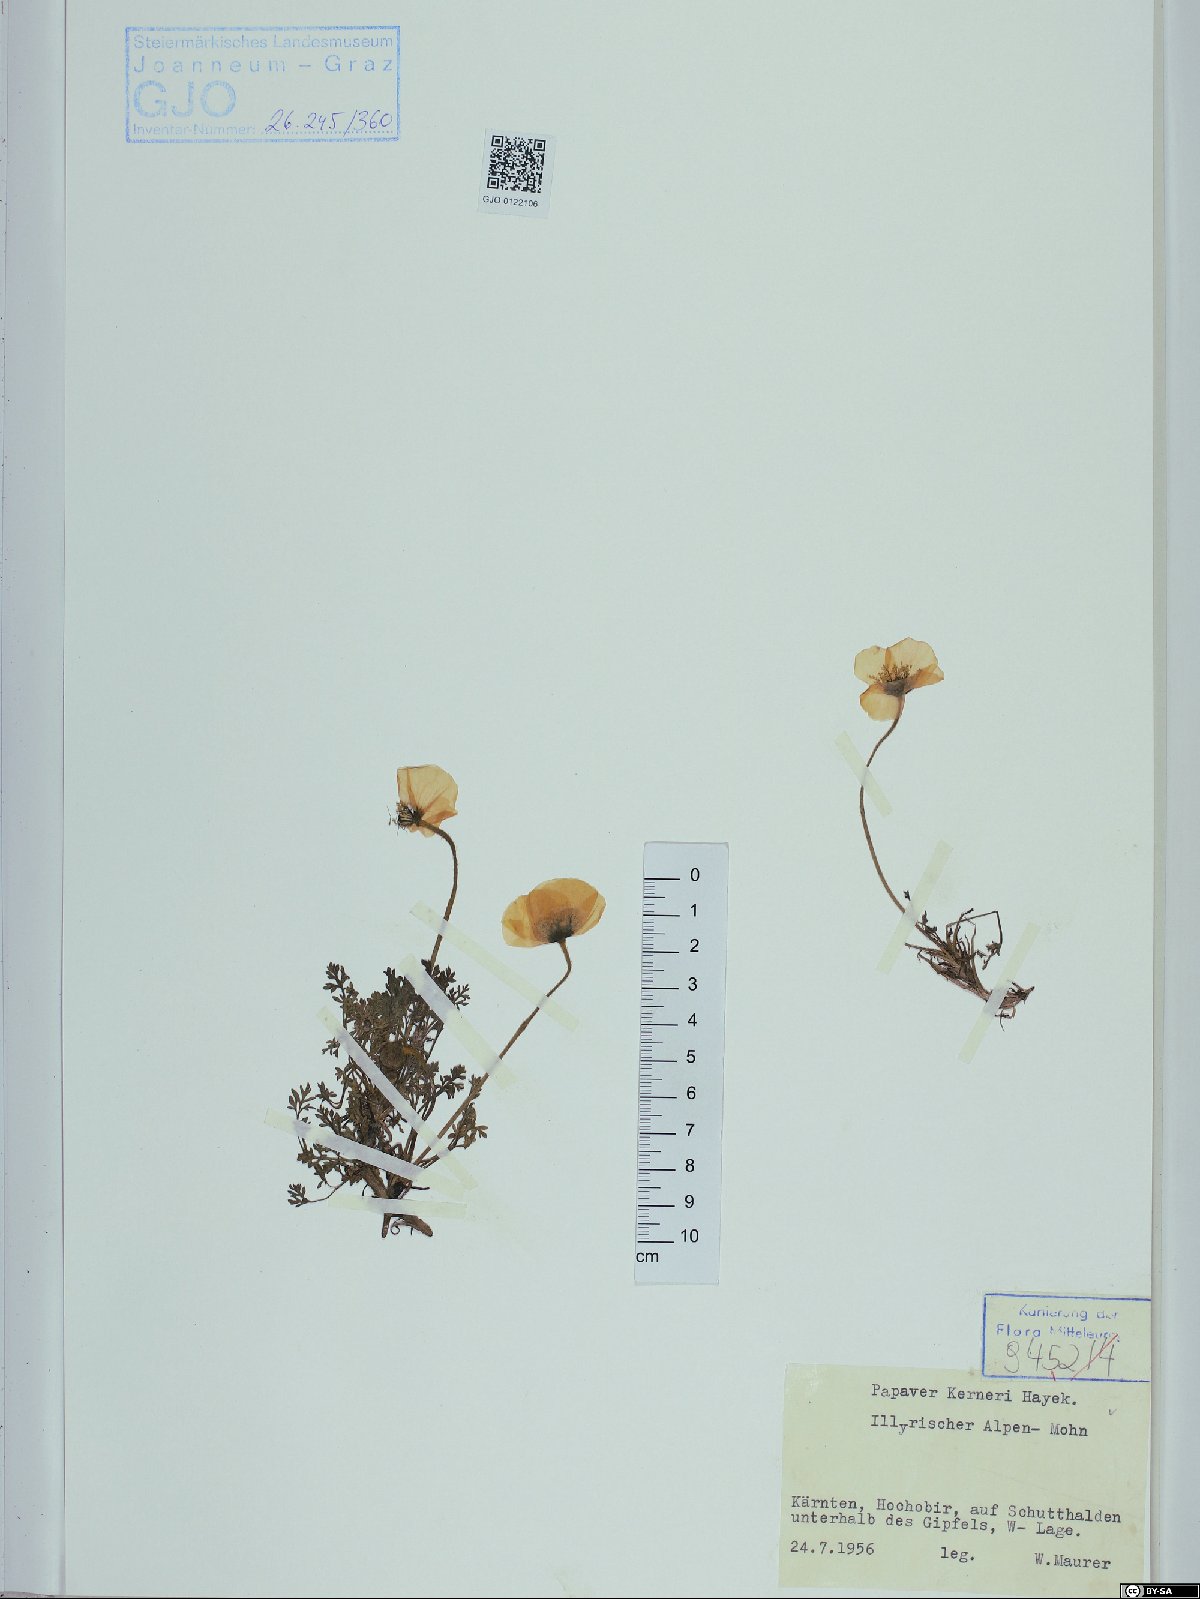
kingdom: Plantae
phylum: Tracheophyta
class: Magnoliopsida
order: Ranunculales
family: Papaveraceae
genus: Papaver
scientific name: Papaver alpinum
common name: Austrian poppy
